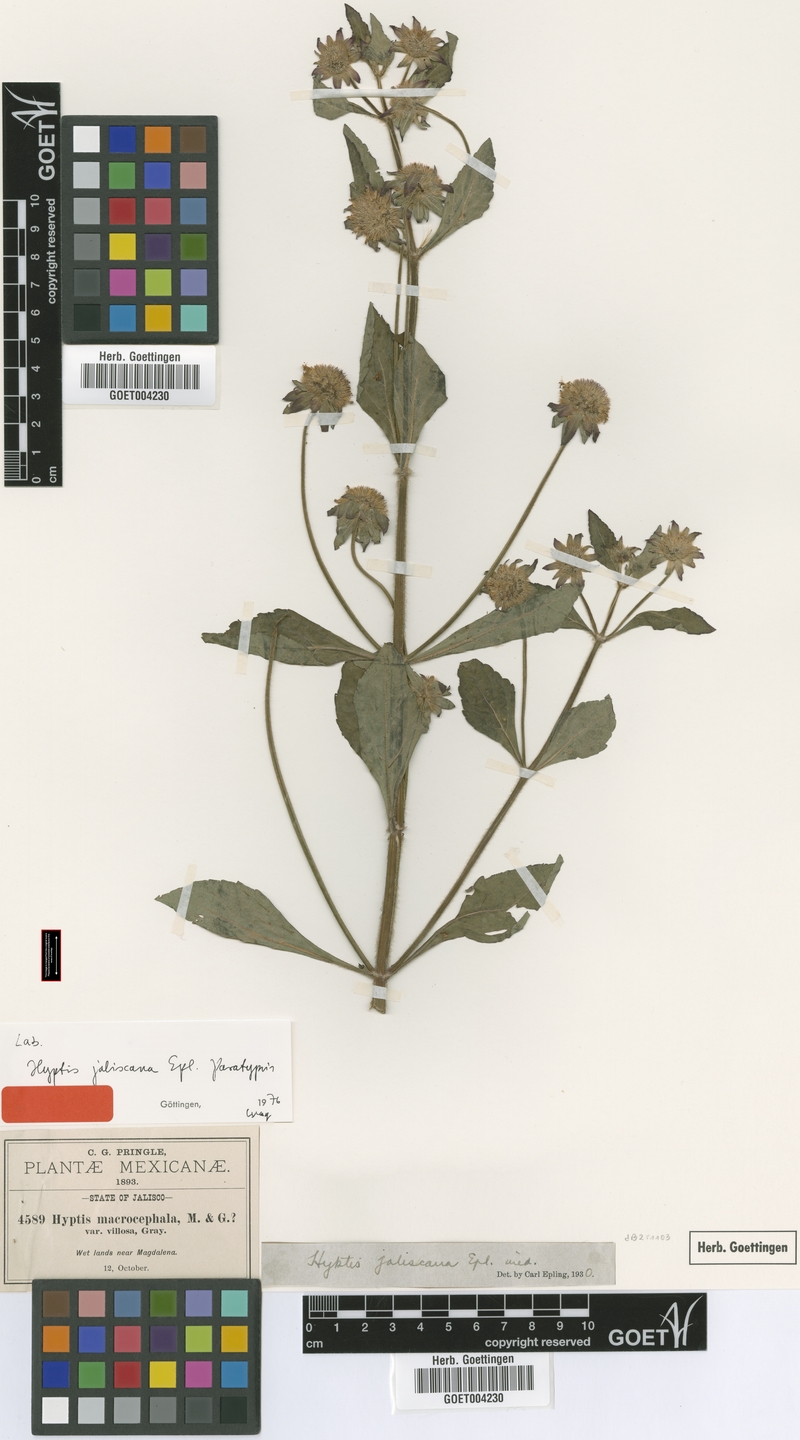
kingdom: Plantae
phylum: Tracheophyta
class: Magnoliopsida
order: Lamiales
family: Lamiaceae
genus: Hyptis
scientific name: Hyptis macrocephala
